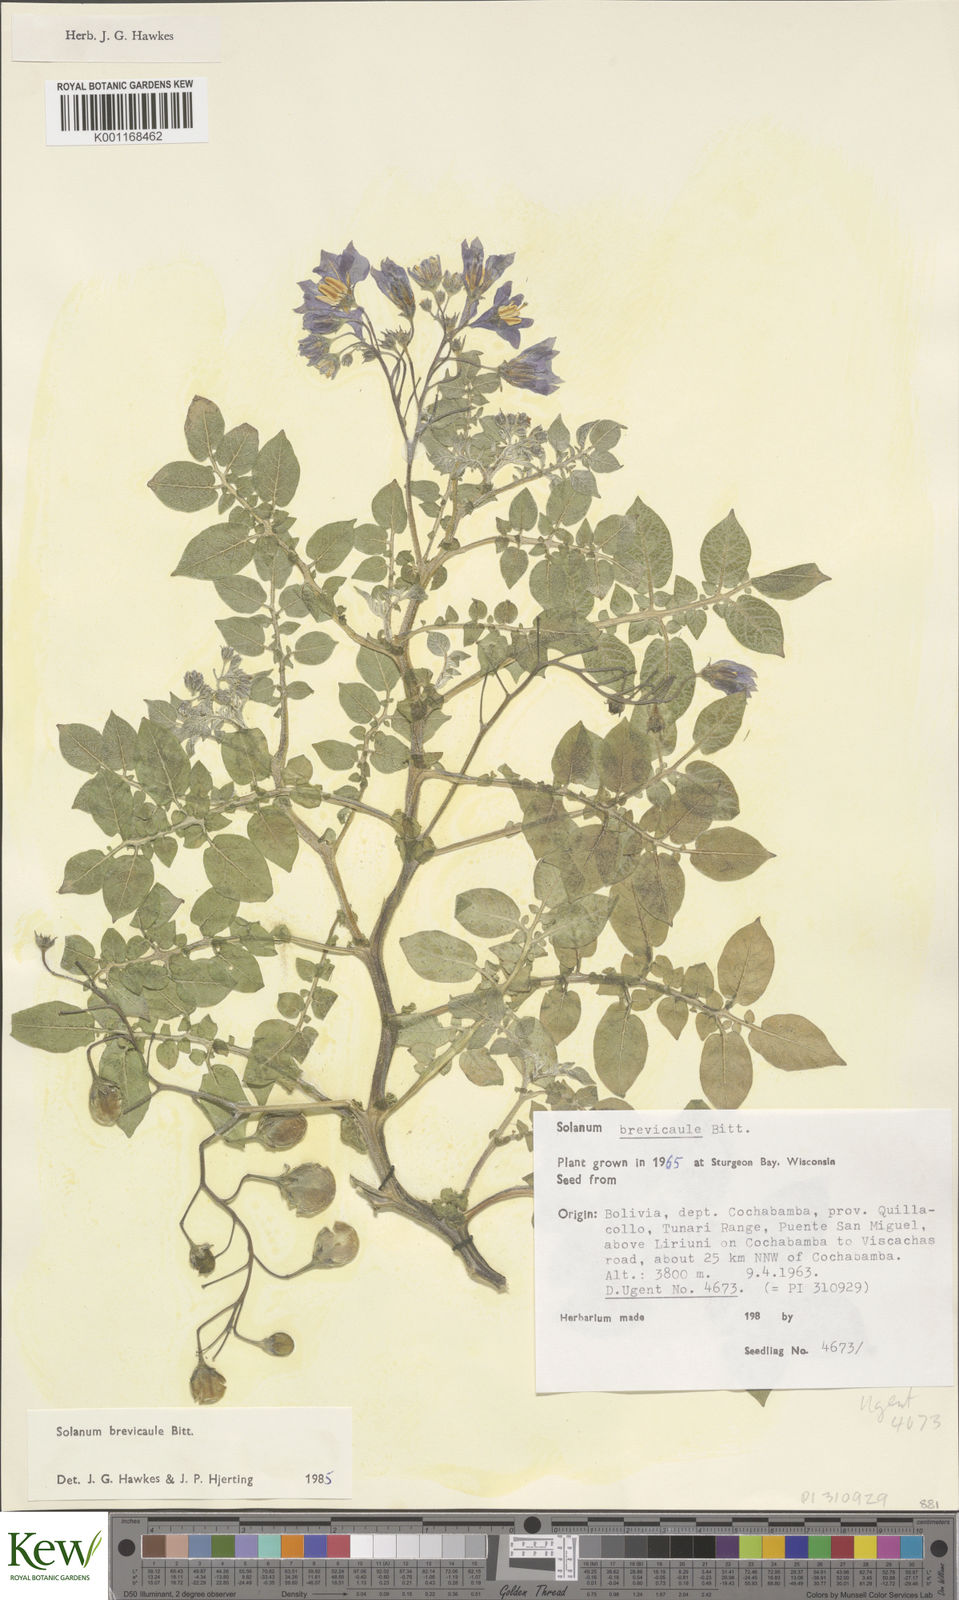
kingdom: Plantae
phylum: Tracheophyta
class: Magnoliopsida
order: Solanales
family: Solanaceae
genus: Solanum
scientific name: Solanum brevicaule
